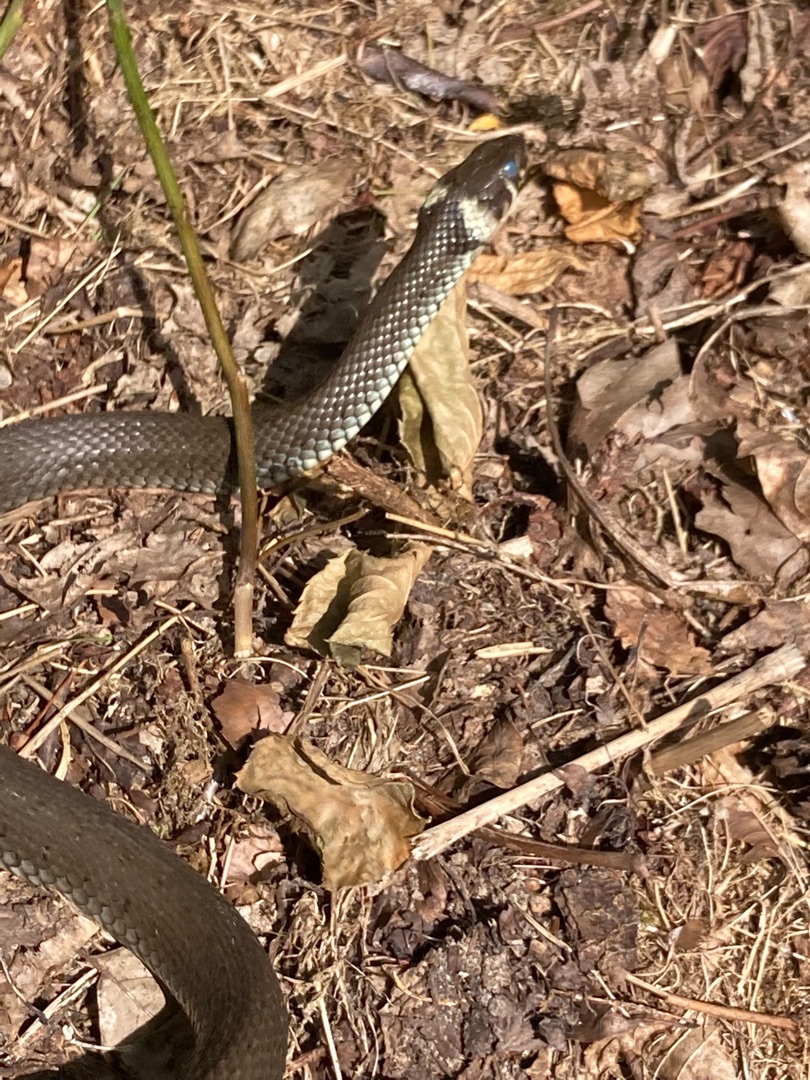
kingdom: Animalia
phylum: Chordata
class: Squamata
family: Colubridae
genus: Natrix
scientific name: Natrix natrix
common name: Snog
